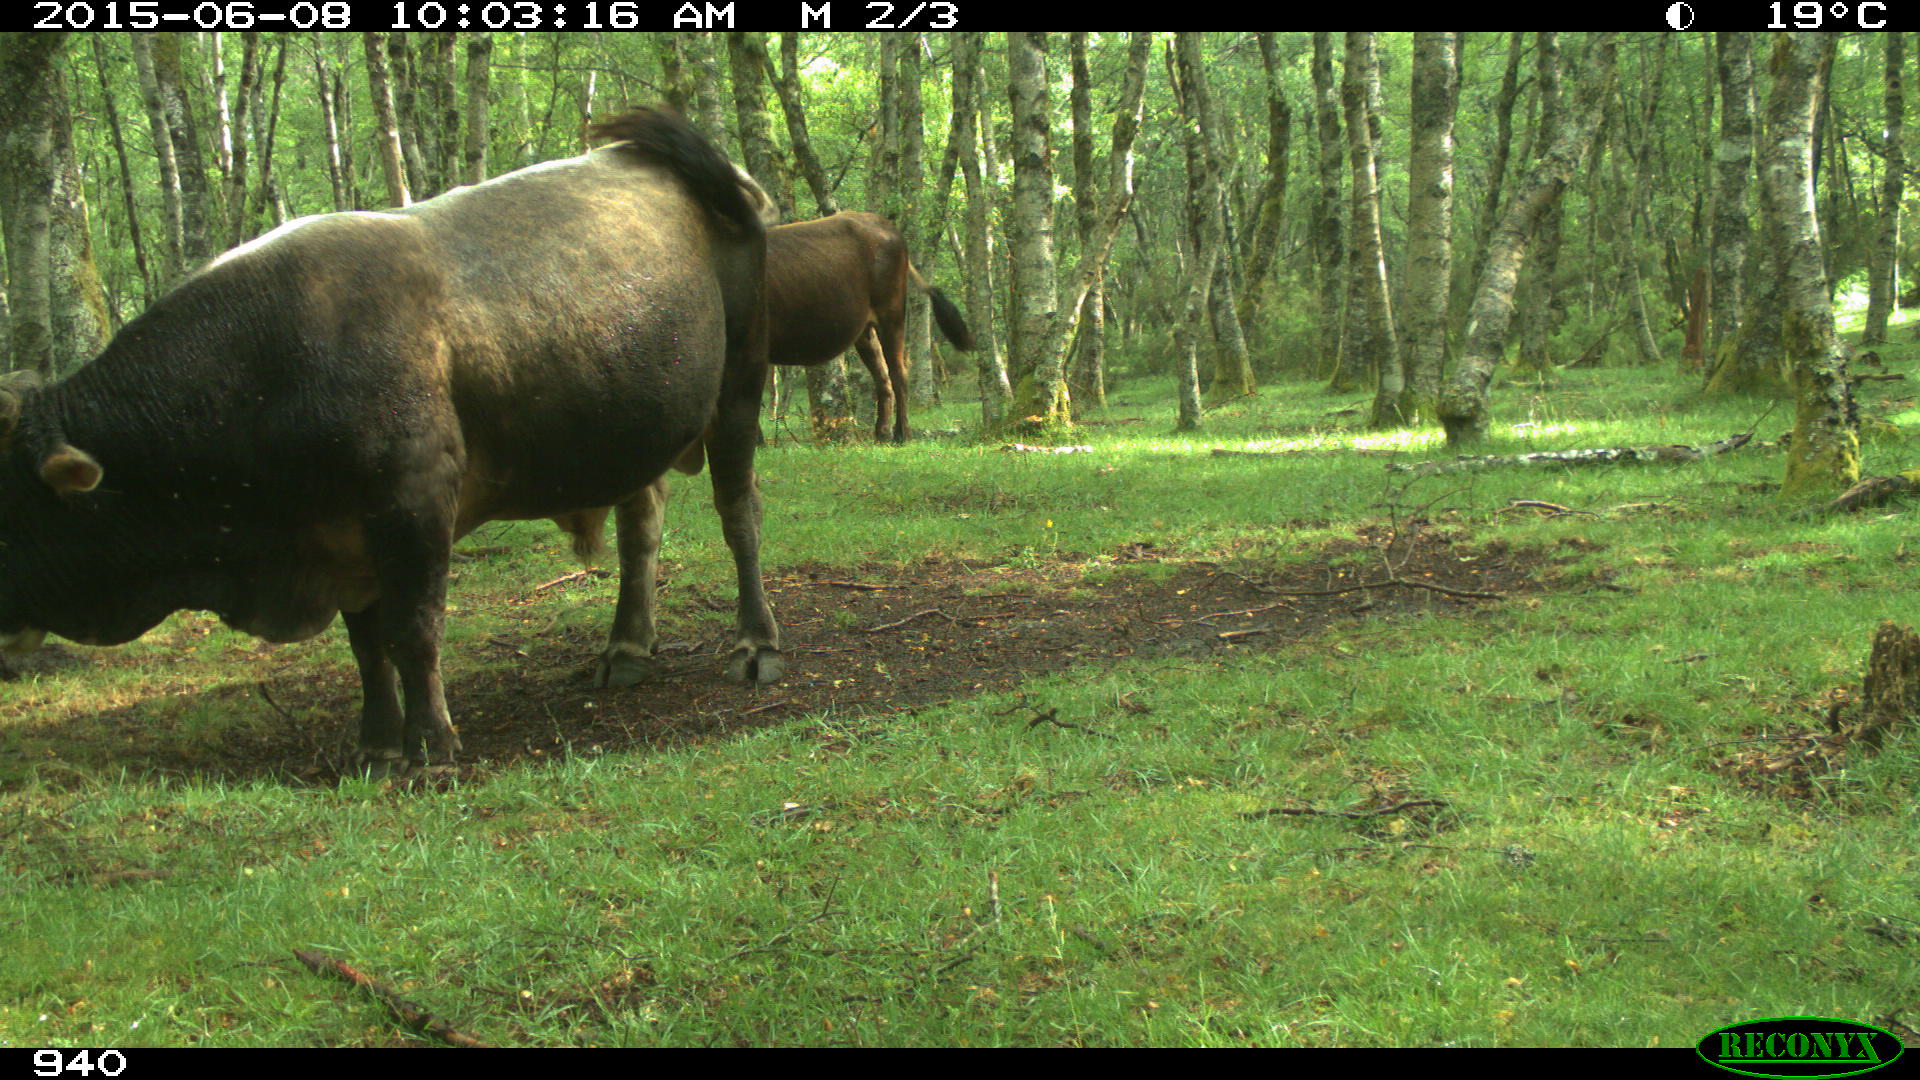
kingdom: Animalia
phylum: Chordata
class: Mammalia
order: Artiodactyla
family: Bovidae
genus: Bos
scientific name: Bos taurus
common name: Domesticated cattle
